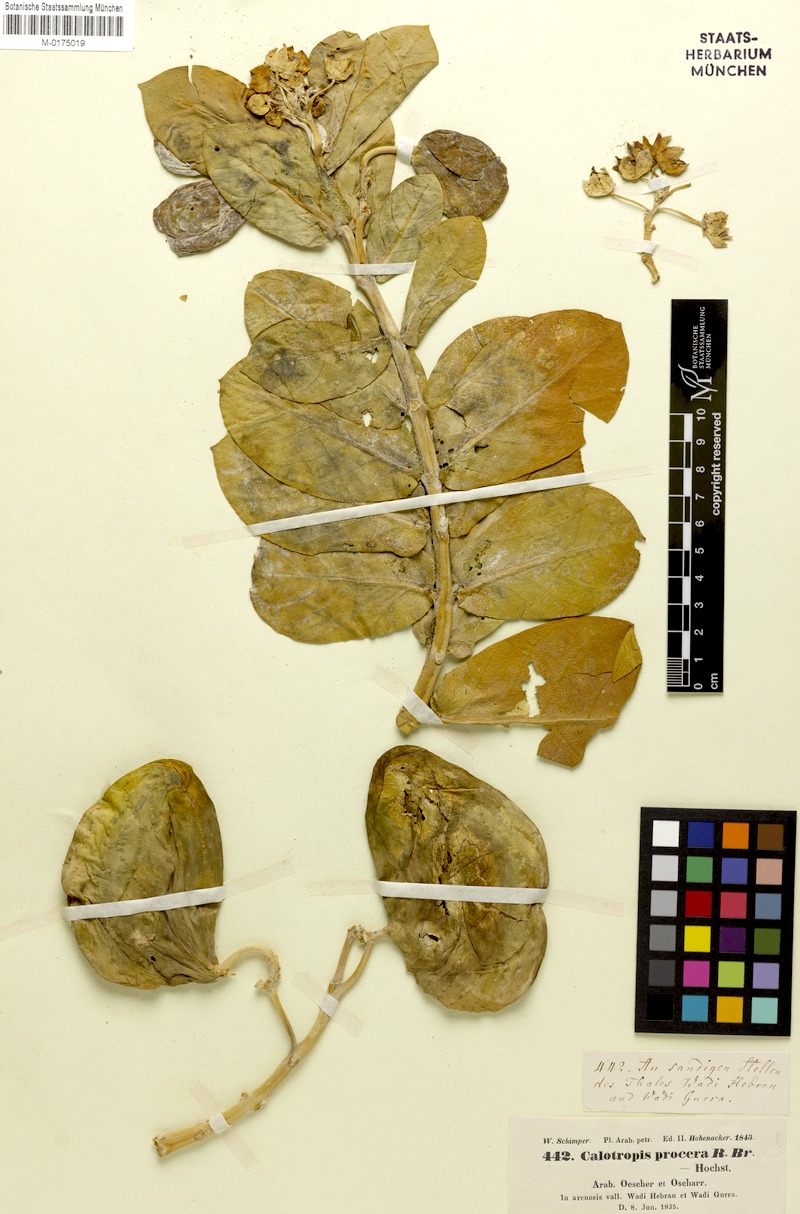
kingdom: Plantae
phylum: Tracheophyta
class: Magnoliopsida
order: Gentianales
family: Apocynaceae
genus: Calotropis
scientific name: Calotropis procera
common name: Roostertree
